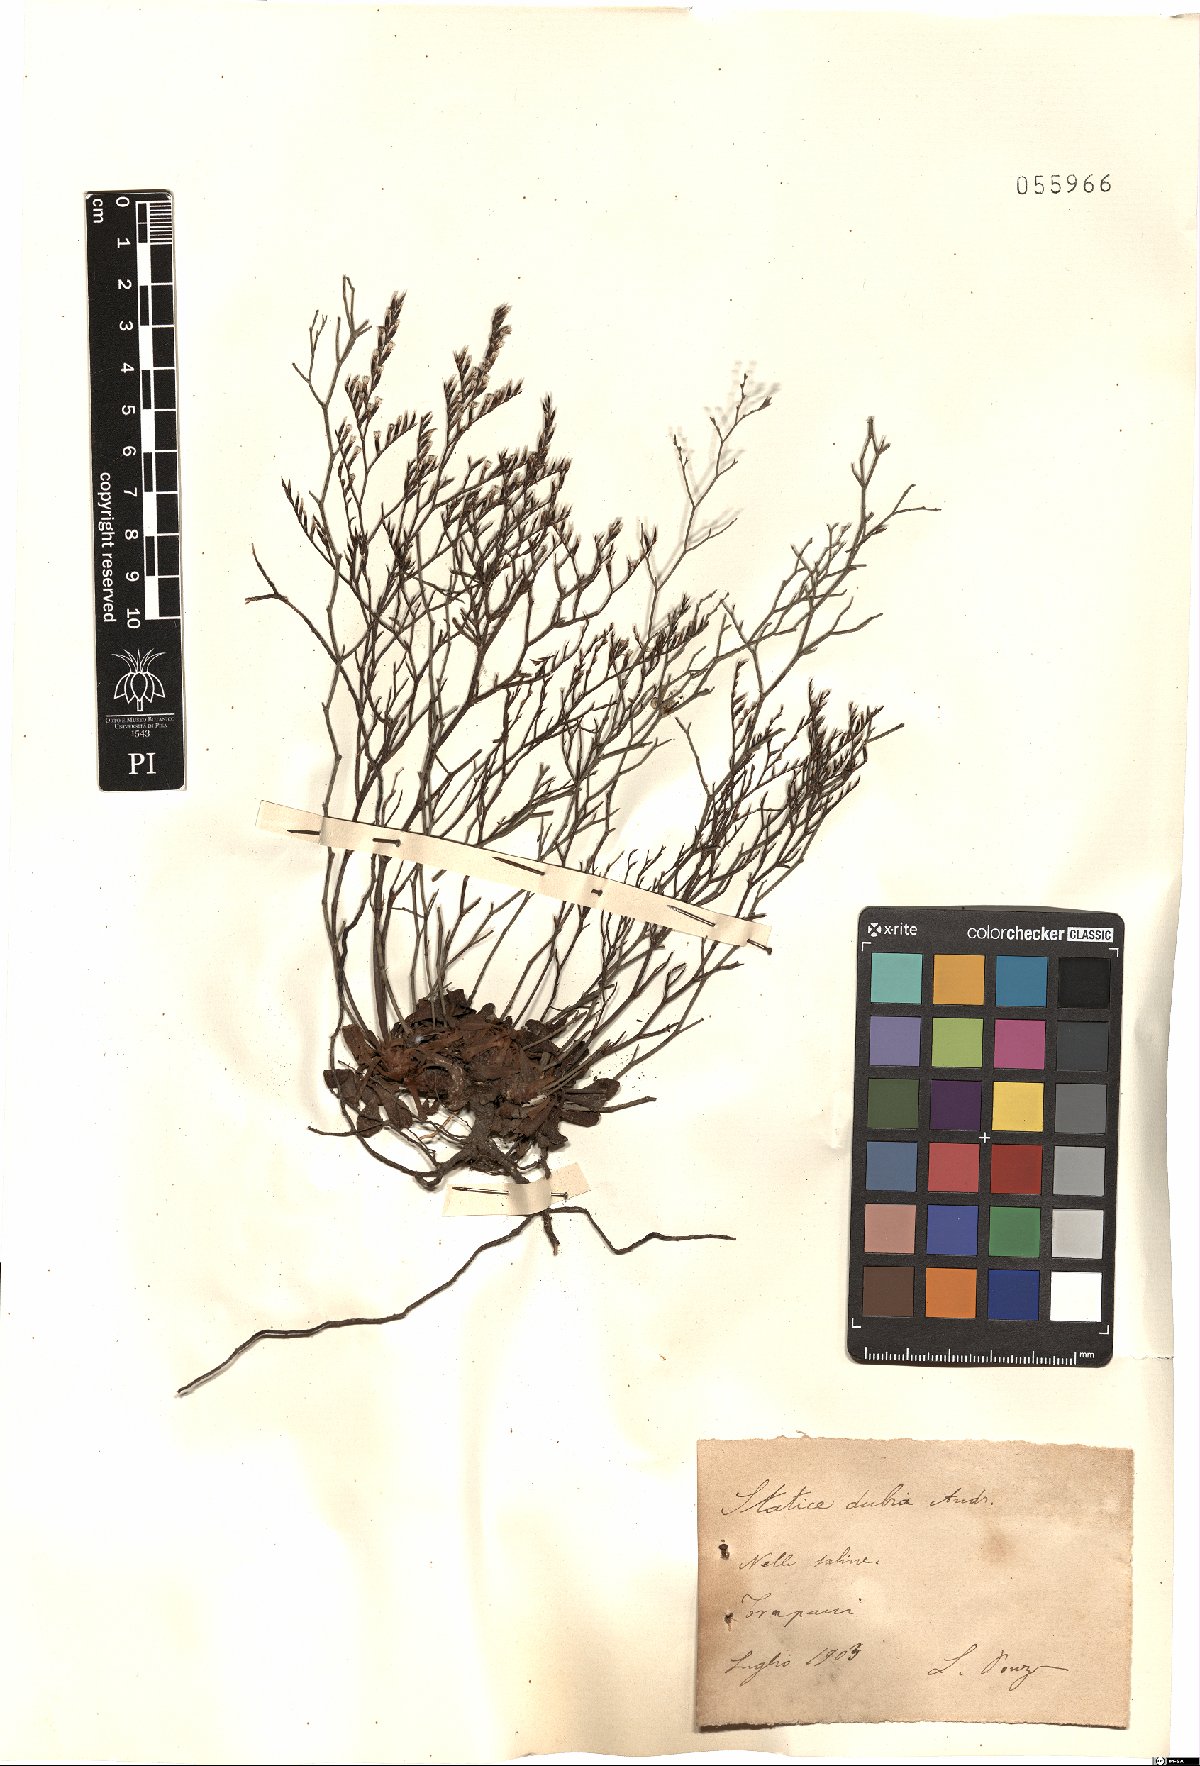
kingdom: Plantae
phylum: Tracheophyta
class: Magnoliopsida
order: Caryophyllales
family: Plumbaginaceae
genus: Limonium
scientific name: Limonium dubium
